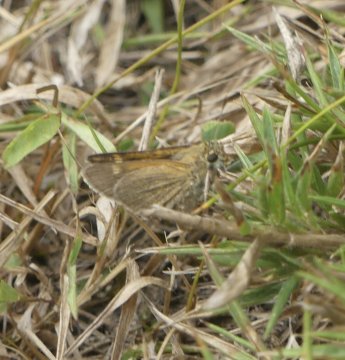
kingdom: Animalia
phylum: Arthropoda
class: Insecta
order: Lepidoptera
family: Hesperiidae
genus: Polites
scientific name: Polites themistocles
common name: Tawny-edged Skipper
